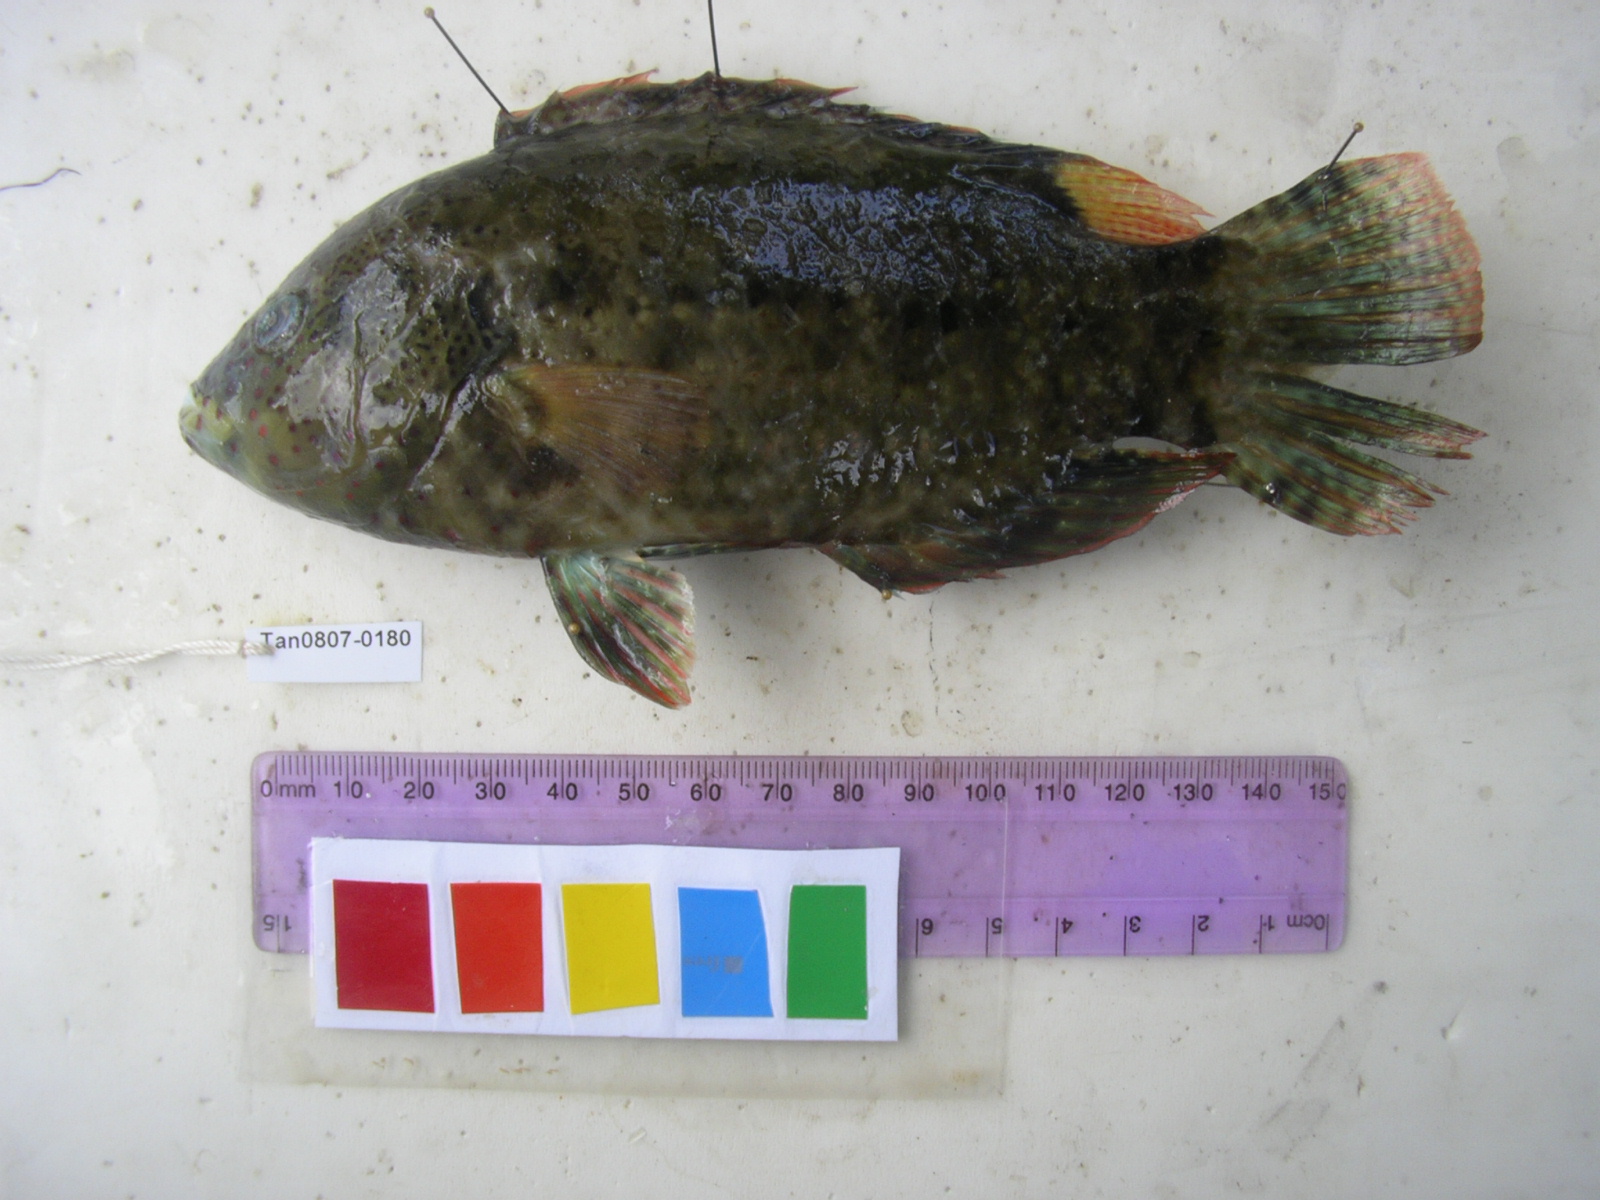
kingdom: Animalia
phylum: Chordata
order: Perciformes
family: Labridae
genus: Cheilinus
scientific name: Cheilinus trilobatus
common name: Tripletail maori wrasse
